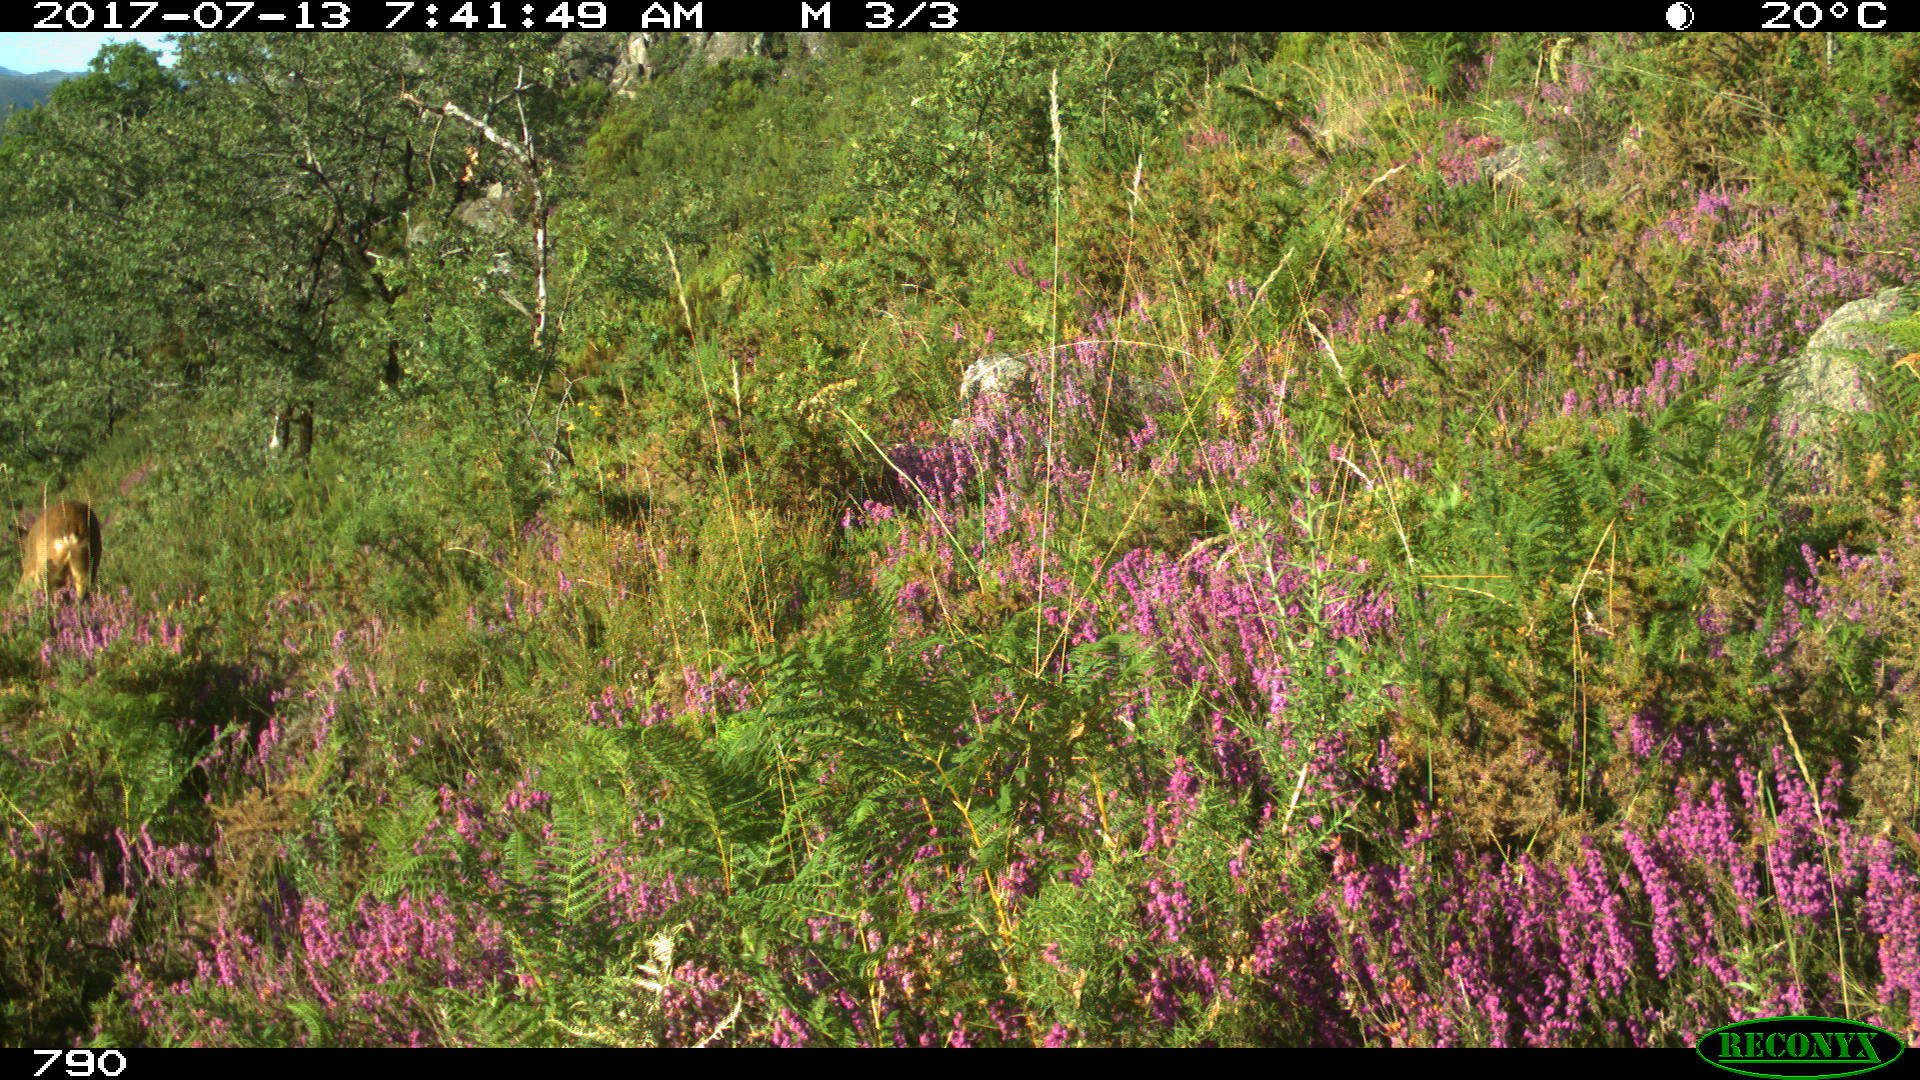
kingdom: Animalia
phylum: Chordata
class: Mammalia
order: Artiodactyla
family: Cervidae
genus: Capreolus
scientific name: Capreolus capreolus
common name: Western roe deer
